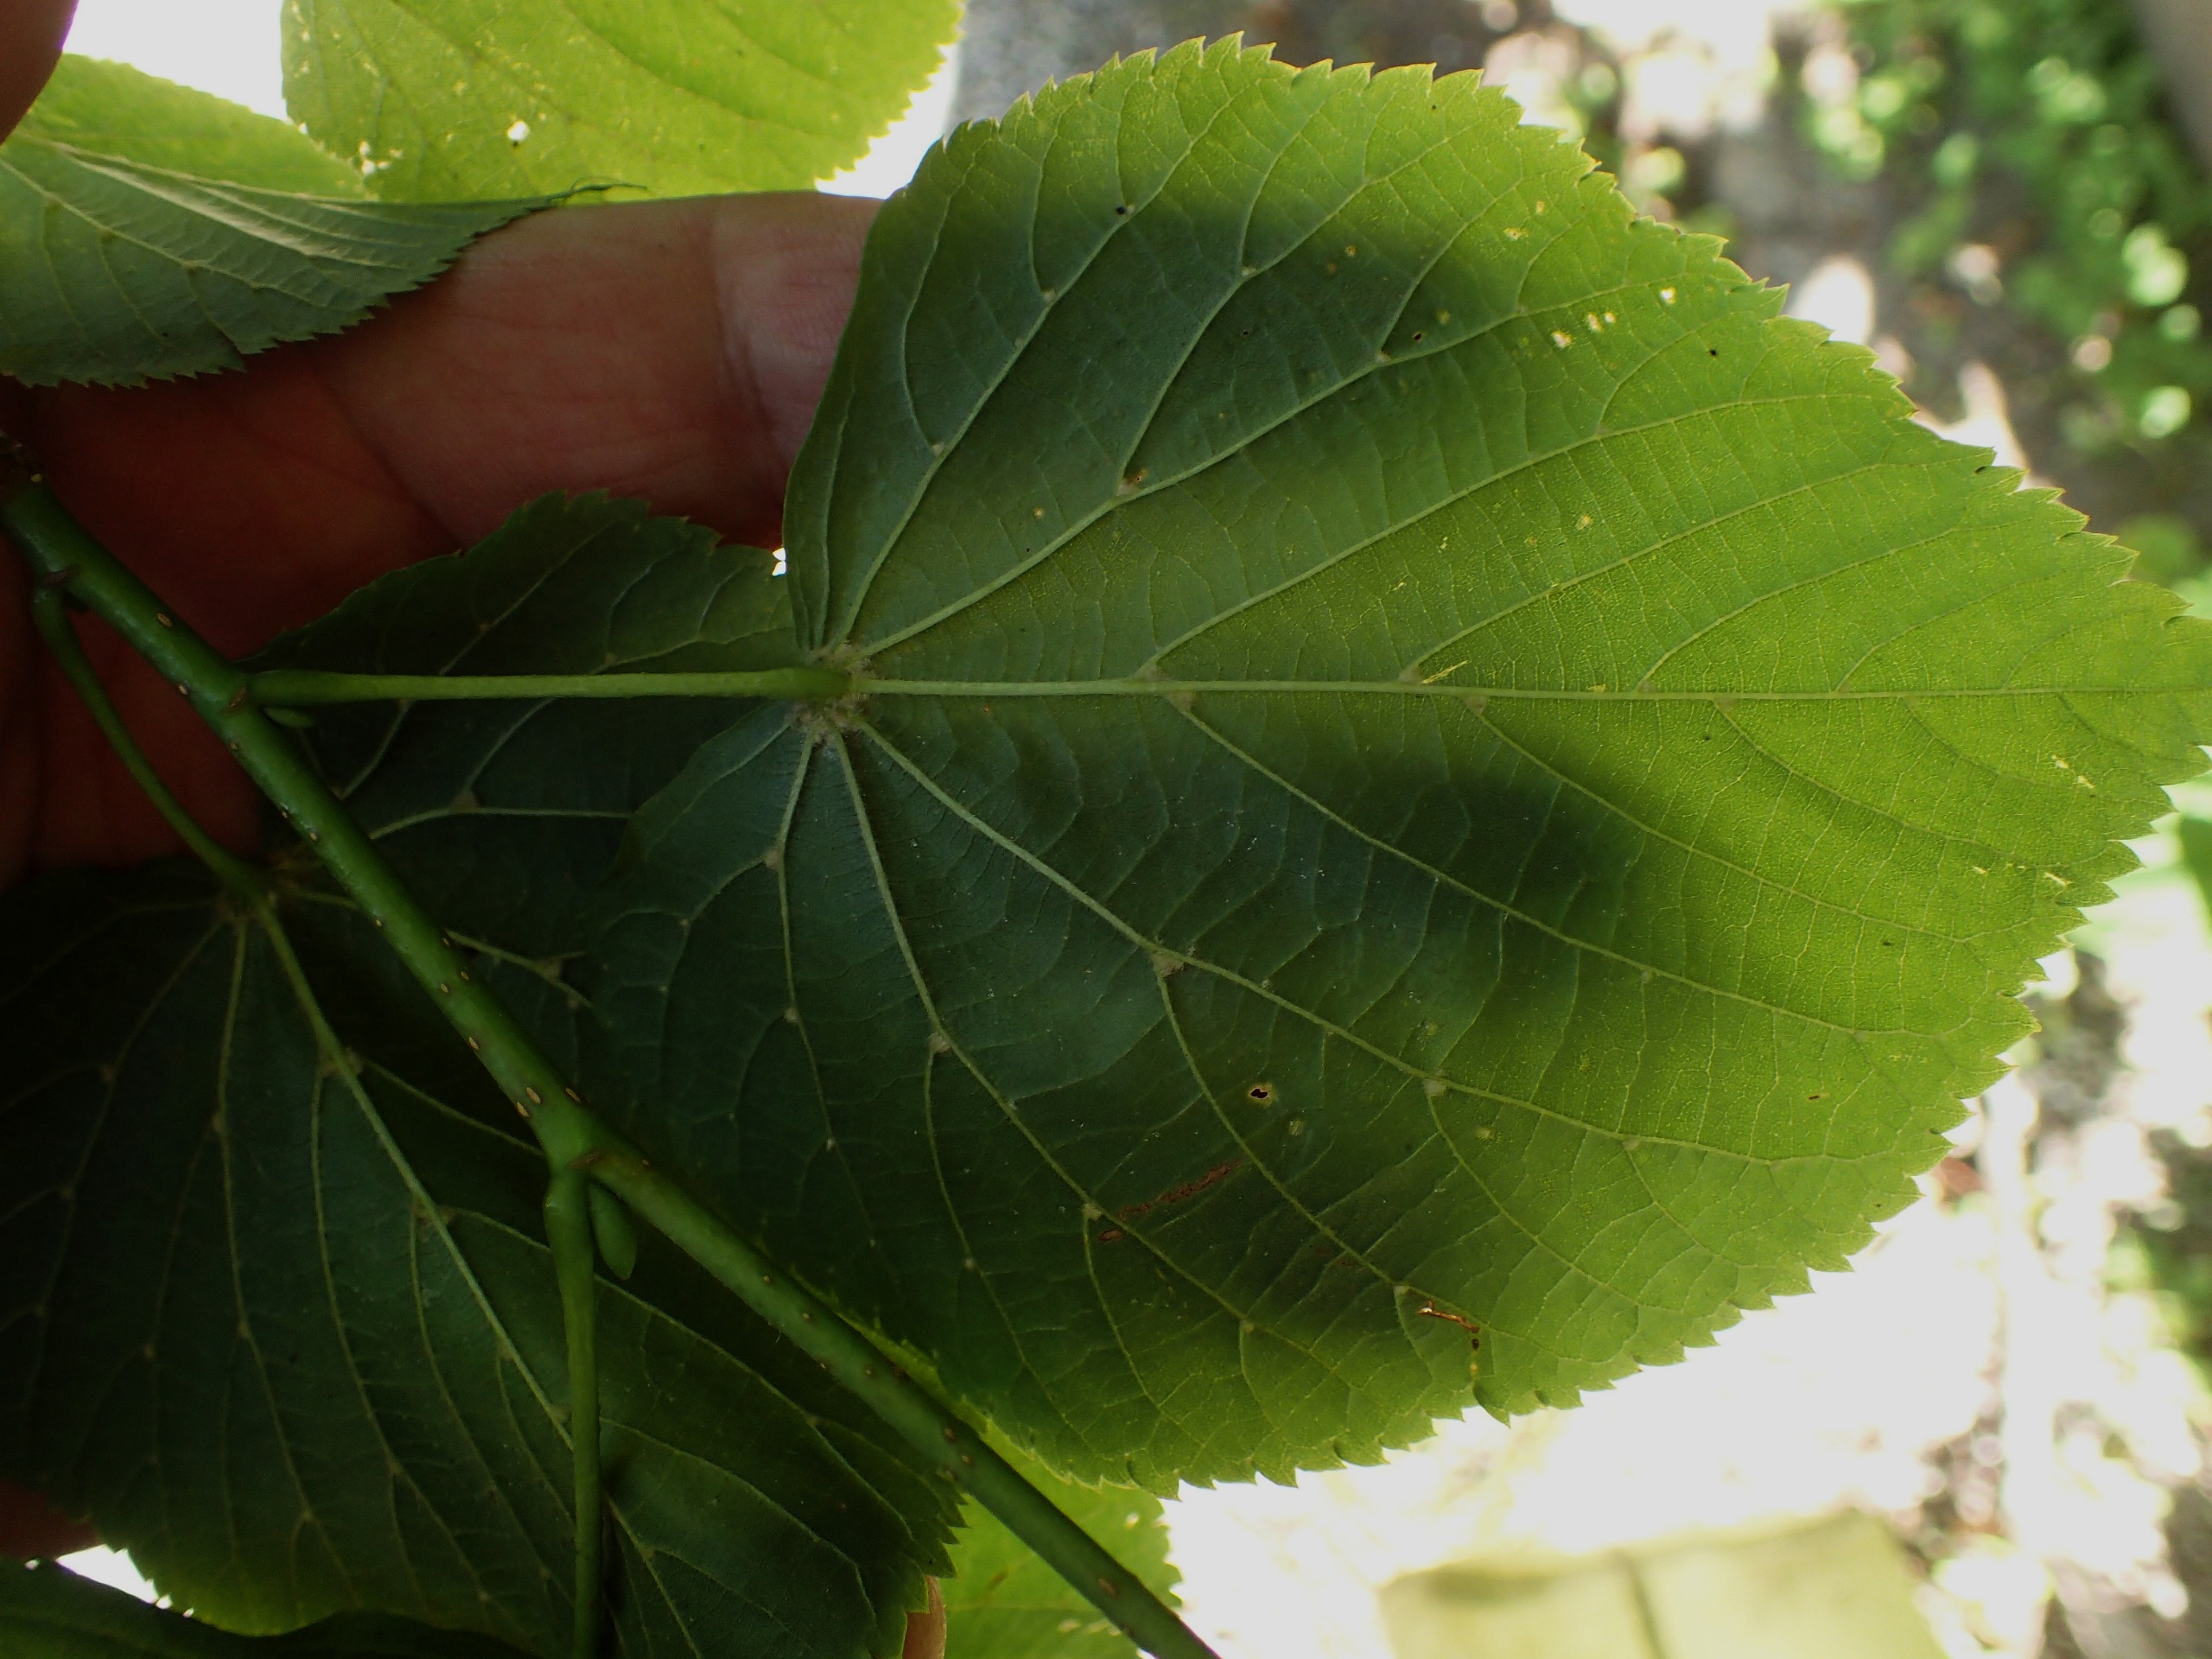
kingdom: Plantae
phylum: Tracheophyta
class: Magnoliopsida
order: Malvales
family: Malvaceae
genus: Tilia
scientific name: Tilia europaea
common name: Park-lind
